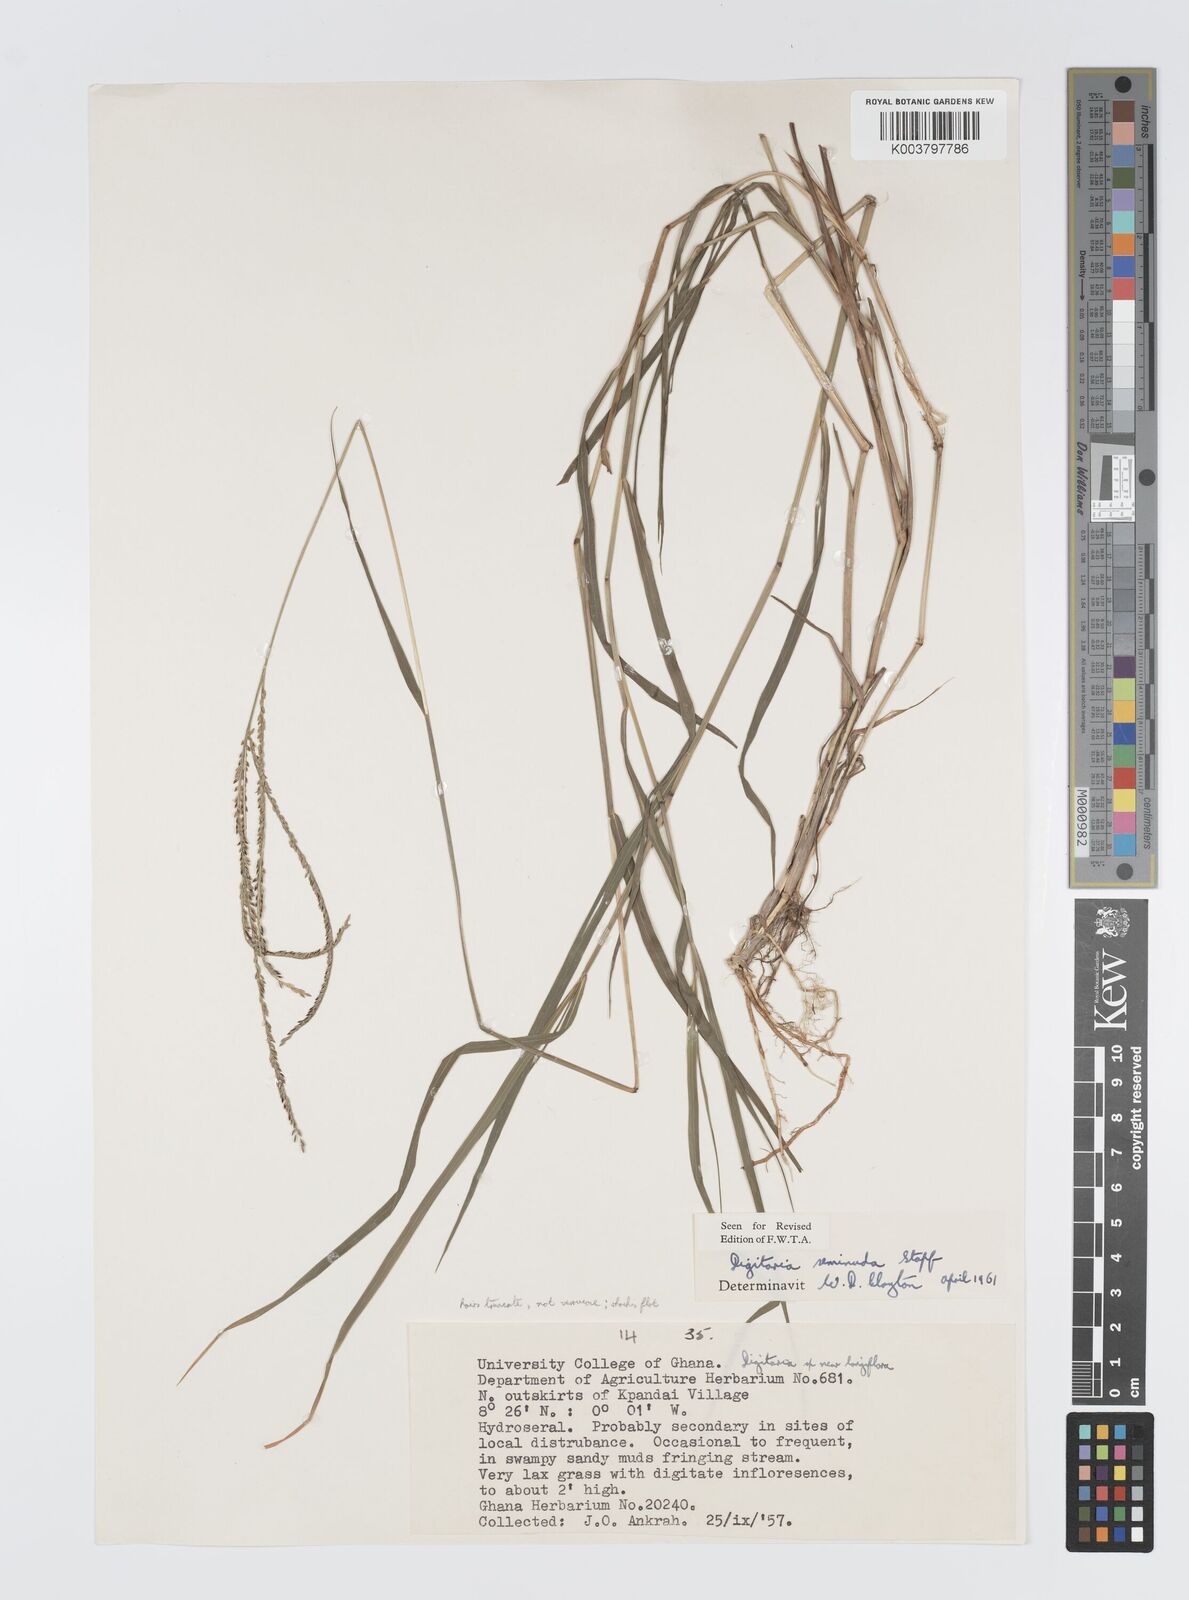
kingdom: Plantae
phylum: Tracheophyta
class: Liliopsida
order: Poales
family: Poaceae
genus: Digitaria
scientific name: Digitaria atrofusca
